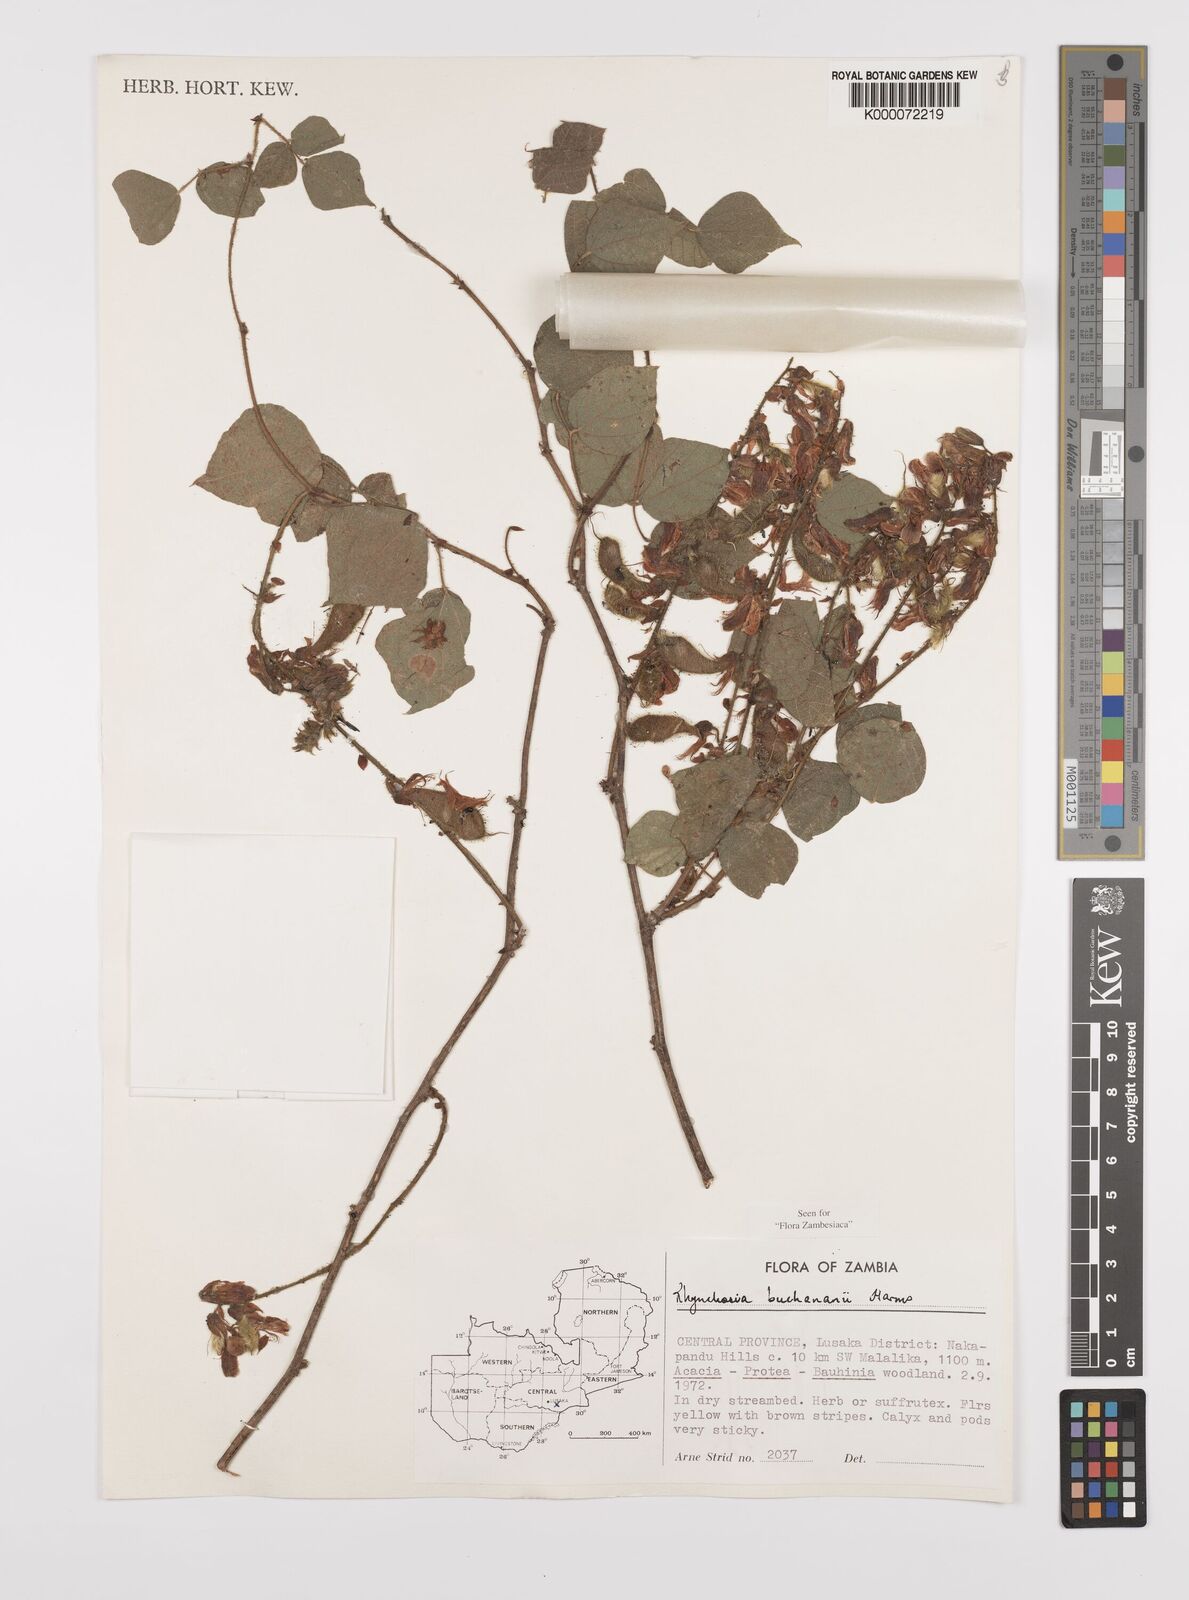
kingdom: Plantae
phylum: Tracheophyta
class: Magnoliopsida
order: Fabales
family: Fabaceae
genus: Rhynchosia
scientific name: Rhynchosia buchananii
